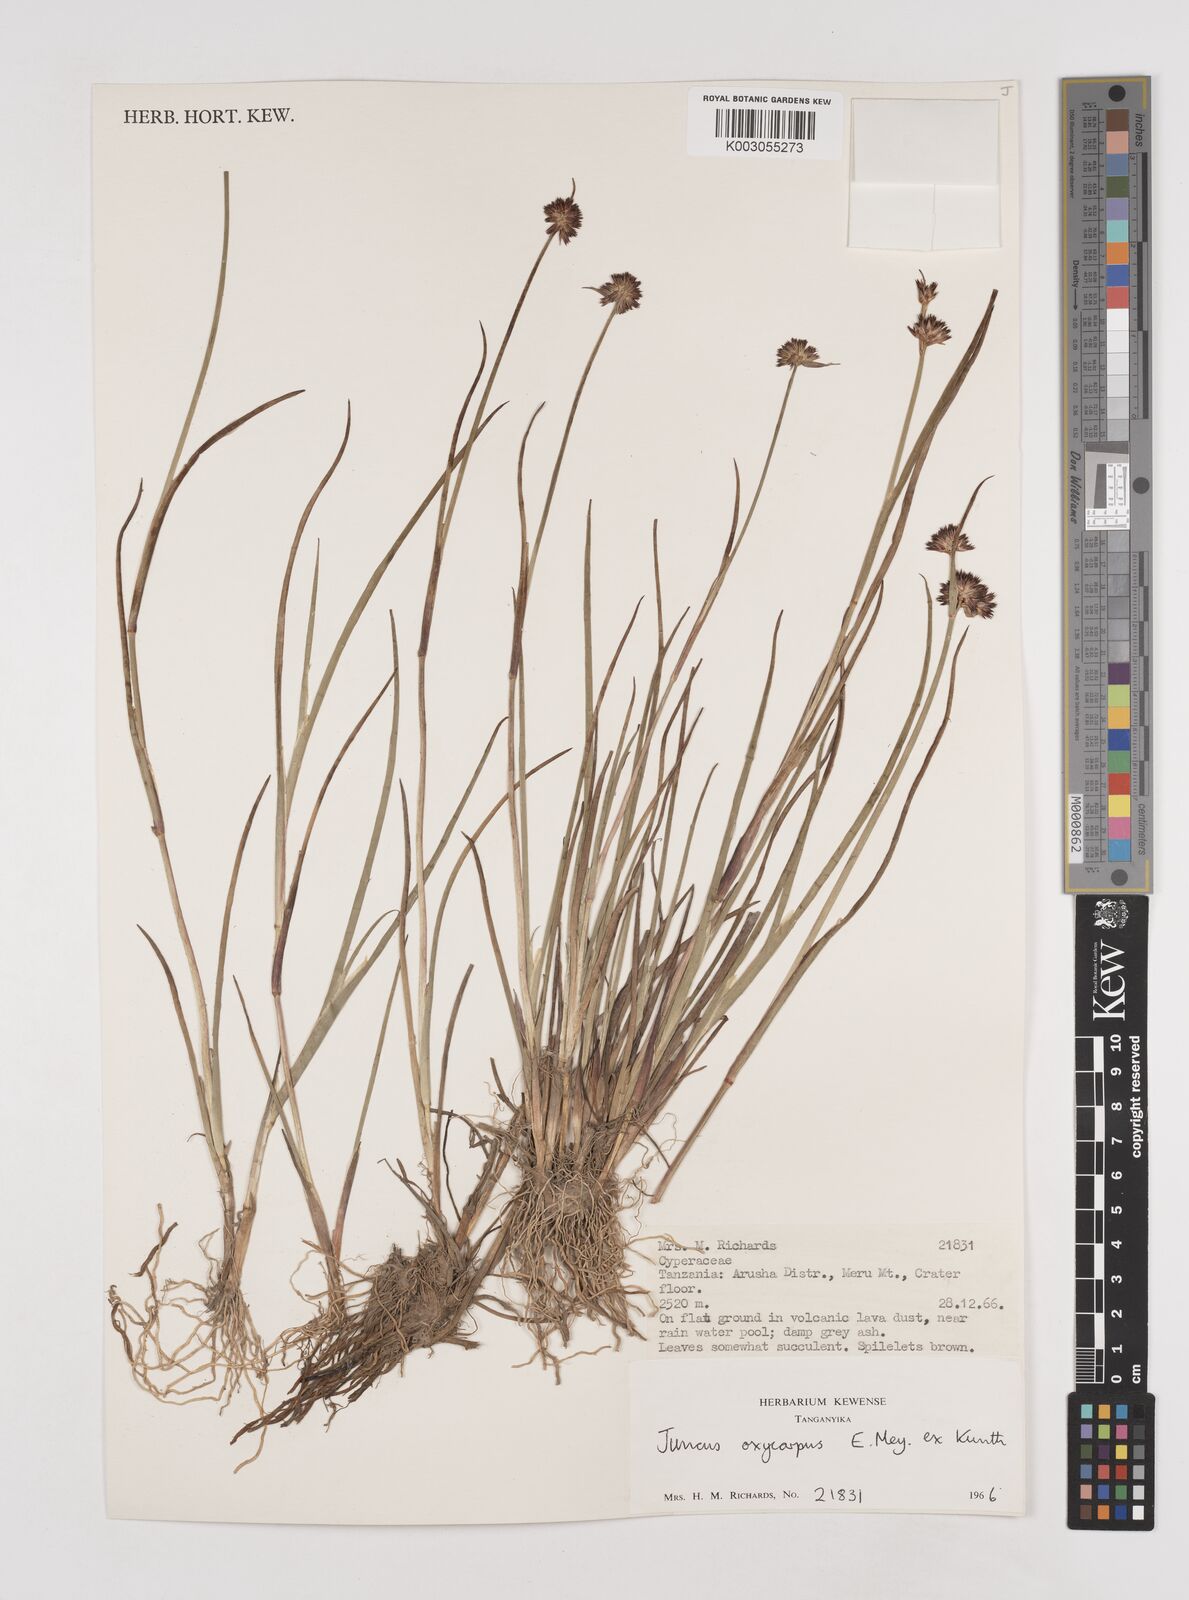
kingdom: Plantae
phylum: Tracheophyta
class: Liliopsida
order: Poales
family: Juncaceae
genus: Juncus
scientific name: Juncus oxycarpus
